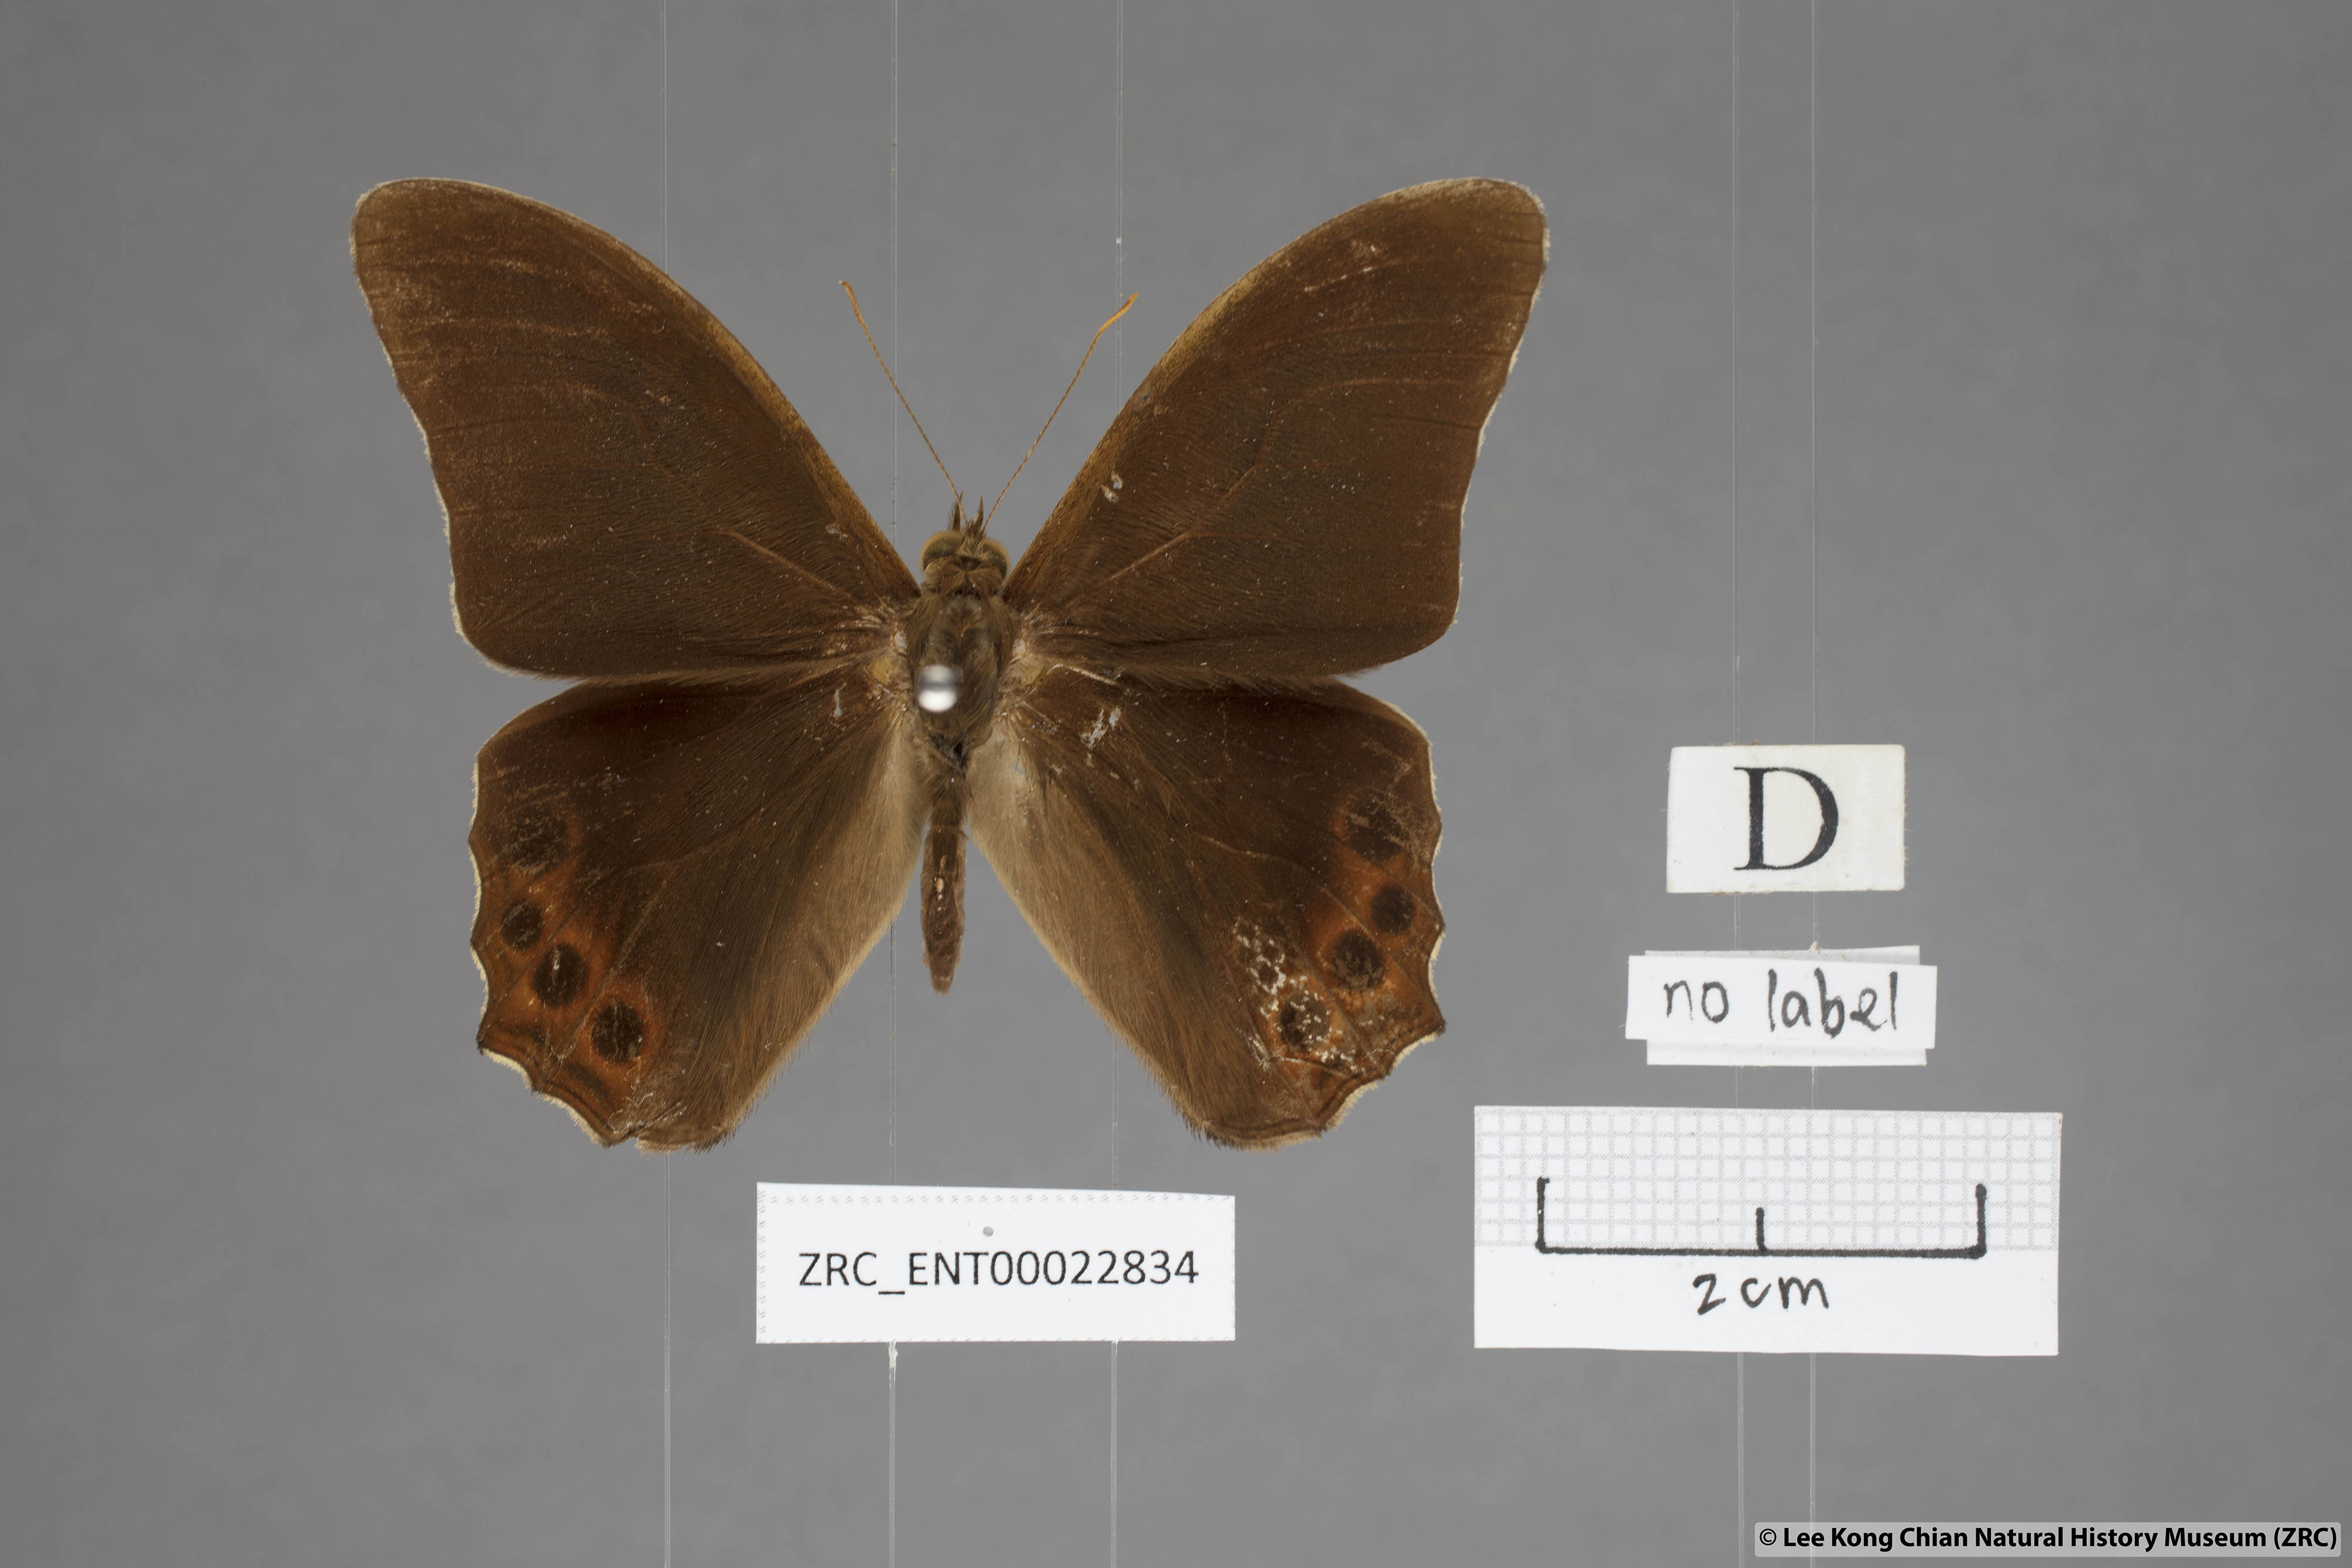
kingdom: Animalia
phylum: Arthropoda
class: Insecta
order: Lepidoptera
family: Nymphalidae
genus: Lethe
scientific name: Lethe mekara
